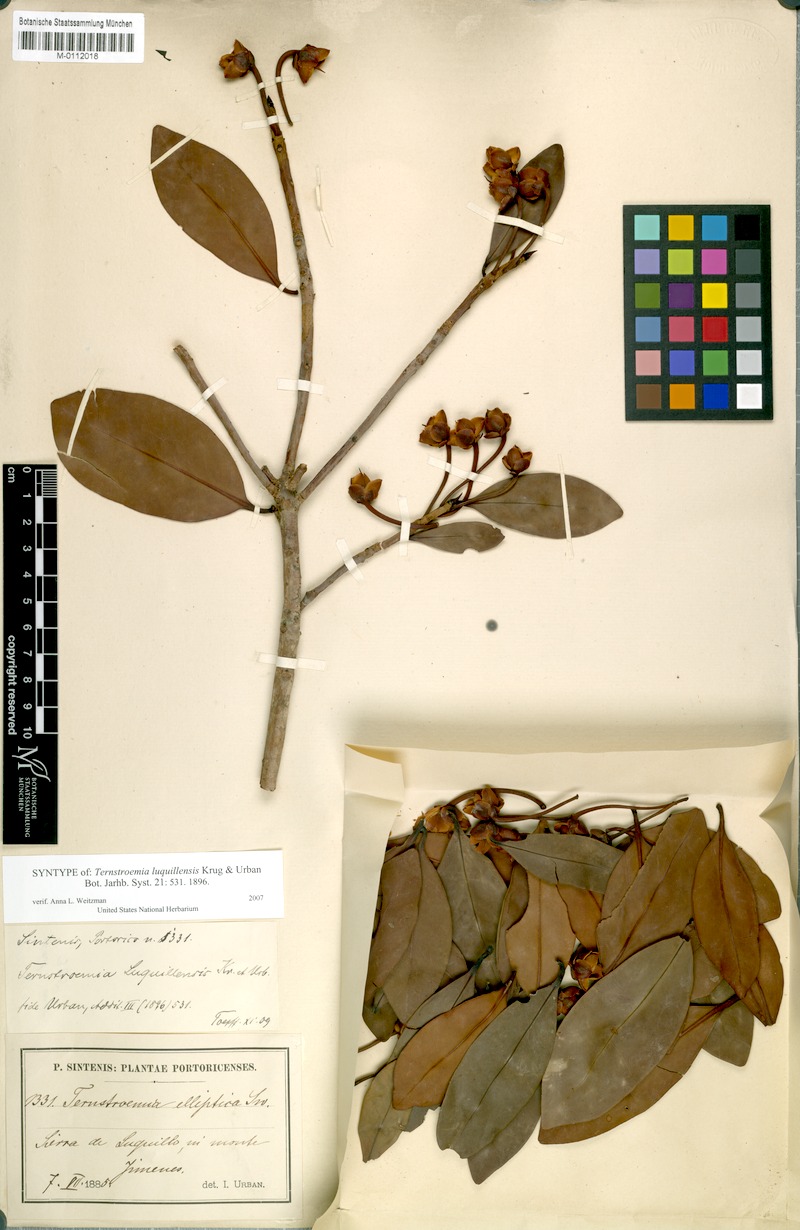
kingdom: Plantae
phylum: Tracheophyta
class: Magnoliopsida
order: Ericales
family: Pentaphylacaceae
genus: Ternstroemia
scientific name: Ternstroemia luquillensis
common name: Palo colorado
